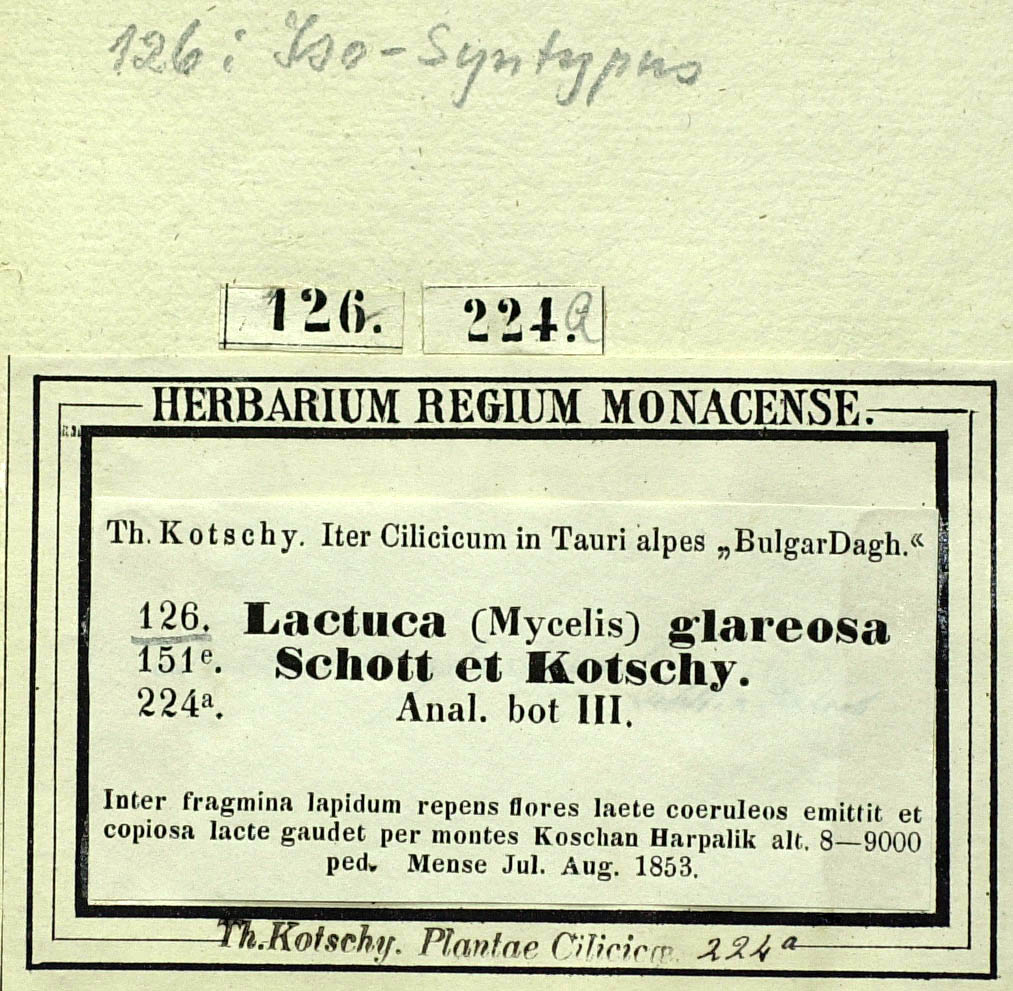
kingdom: Plantae
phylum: Tracheophyta
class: Magnoliopsida
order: Asterales
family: Asteraceae
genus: Lactuca
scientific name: Lactuca glareosa
